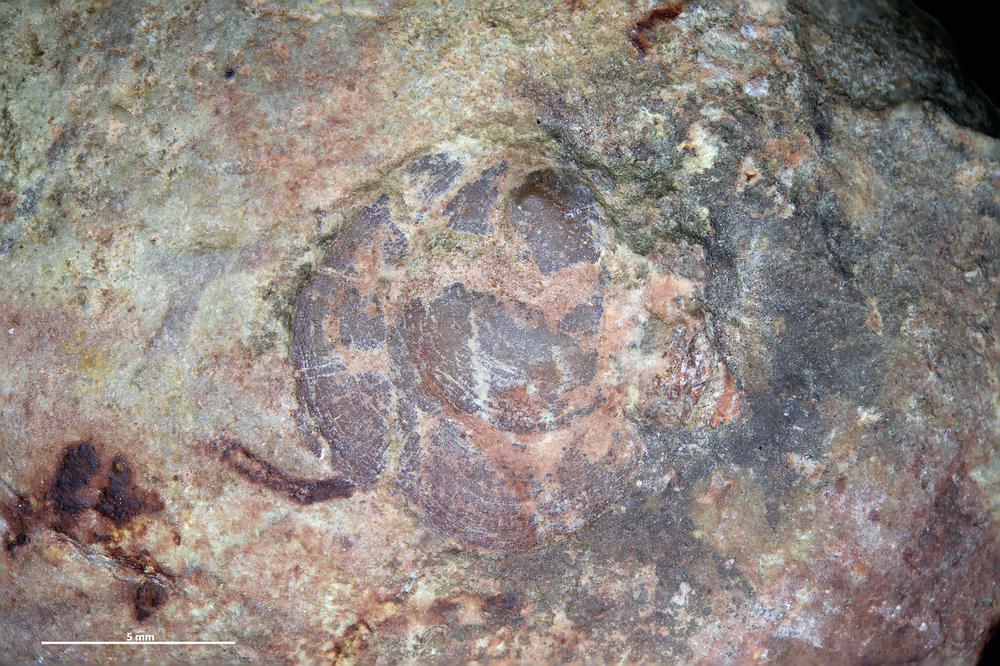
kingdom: Animalia
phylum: Brachiopoda
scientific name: Brachiopoda
